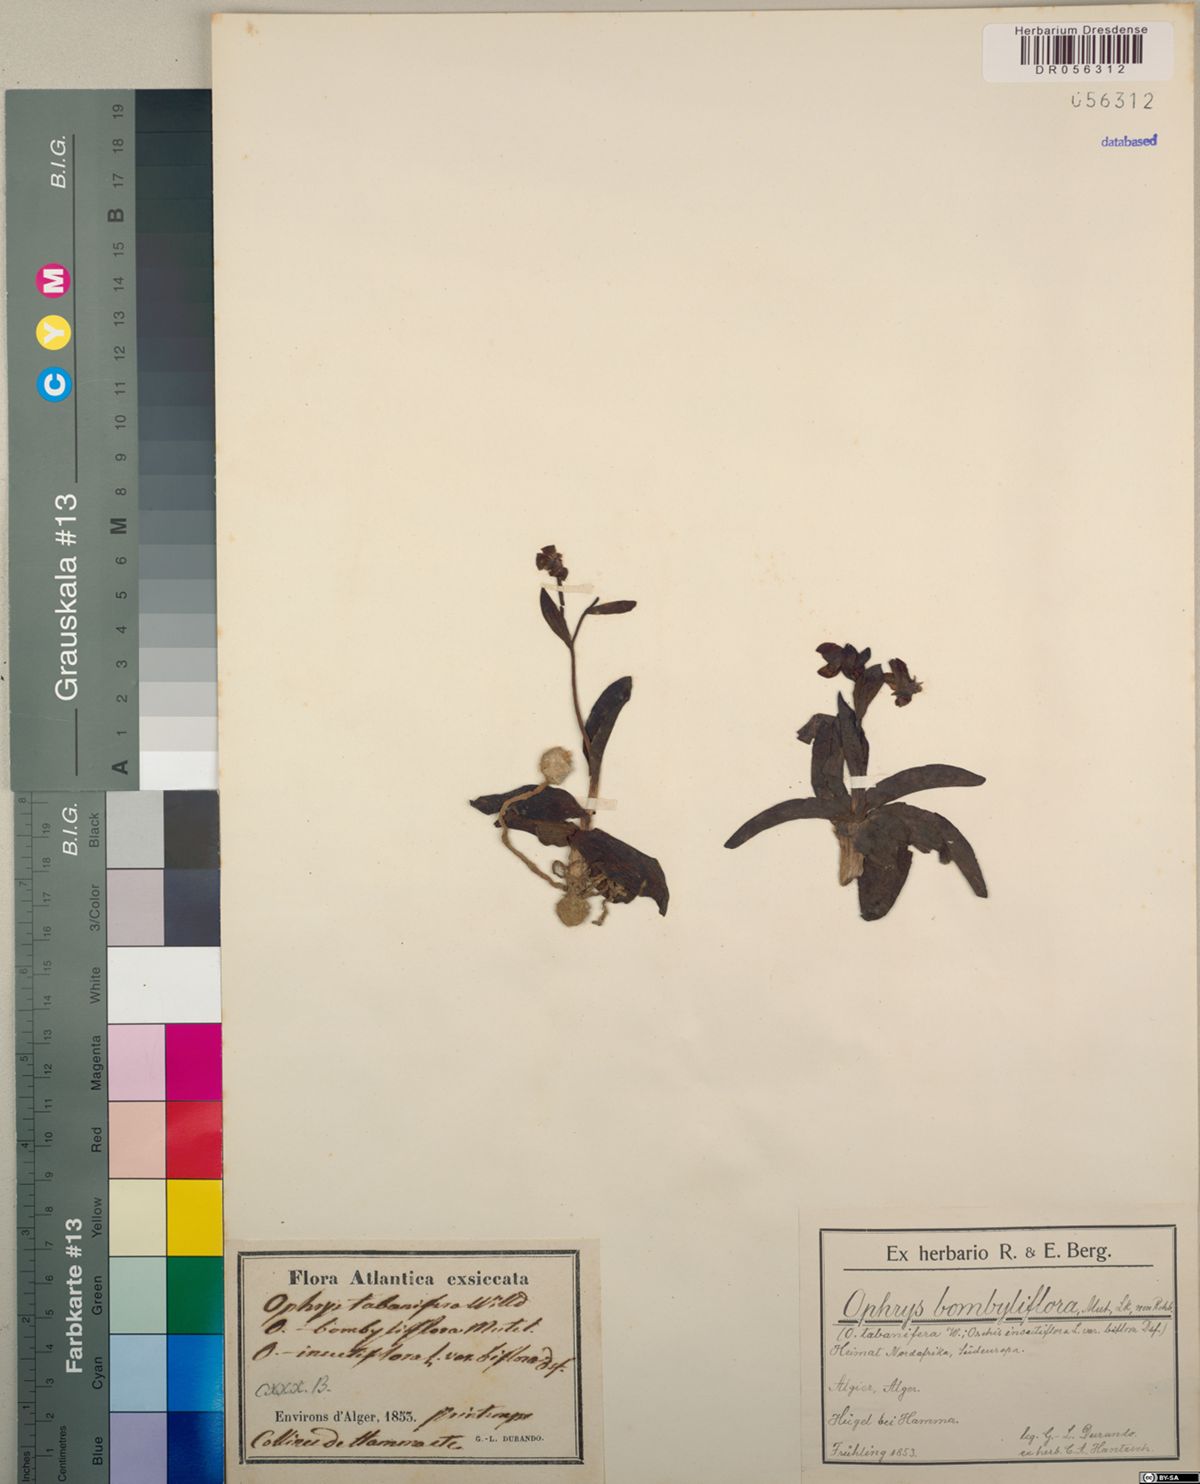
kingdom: Plantae
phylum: Tracheophyta
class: Liliopsida
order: Asparagales
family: Orchidaceae
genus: Ophrys
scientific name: Ophrys bombyliflora
